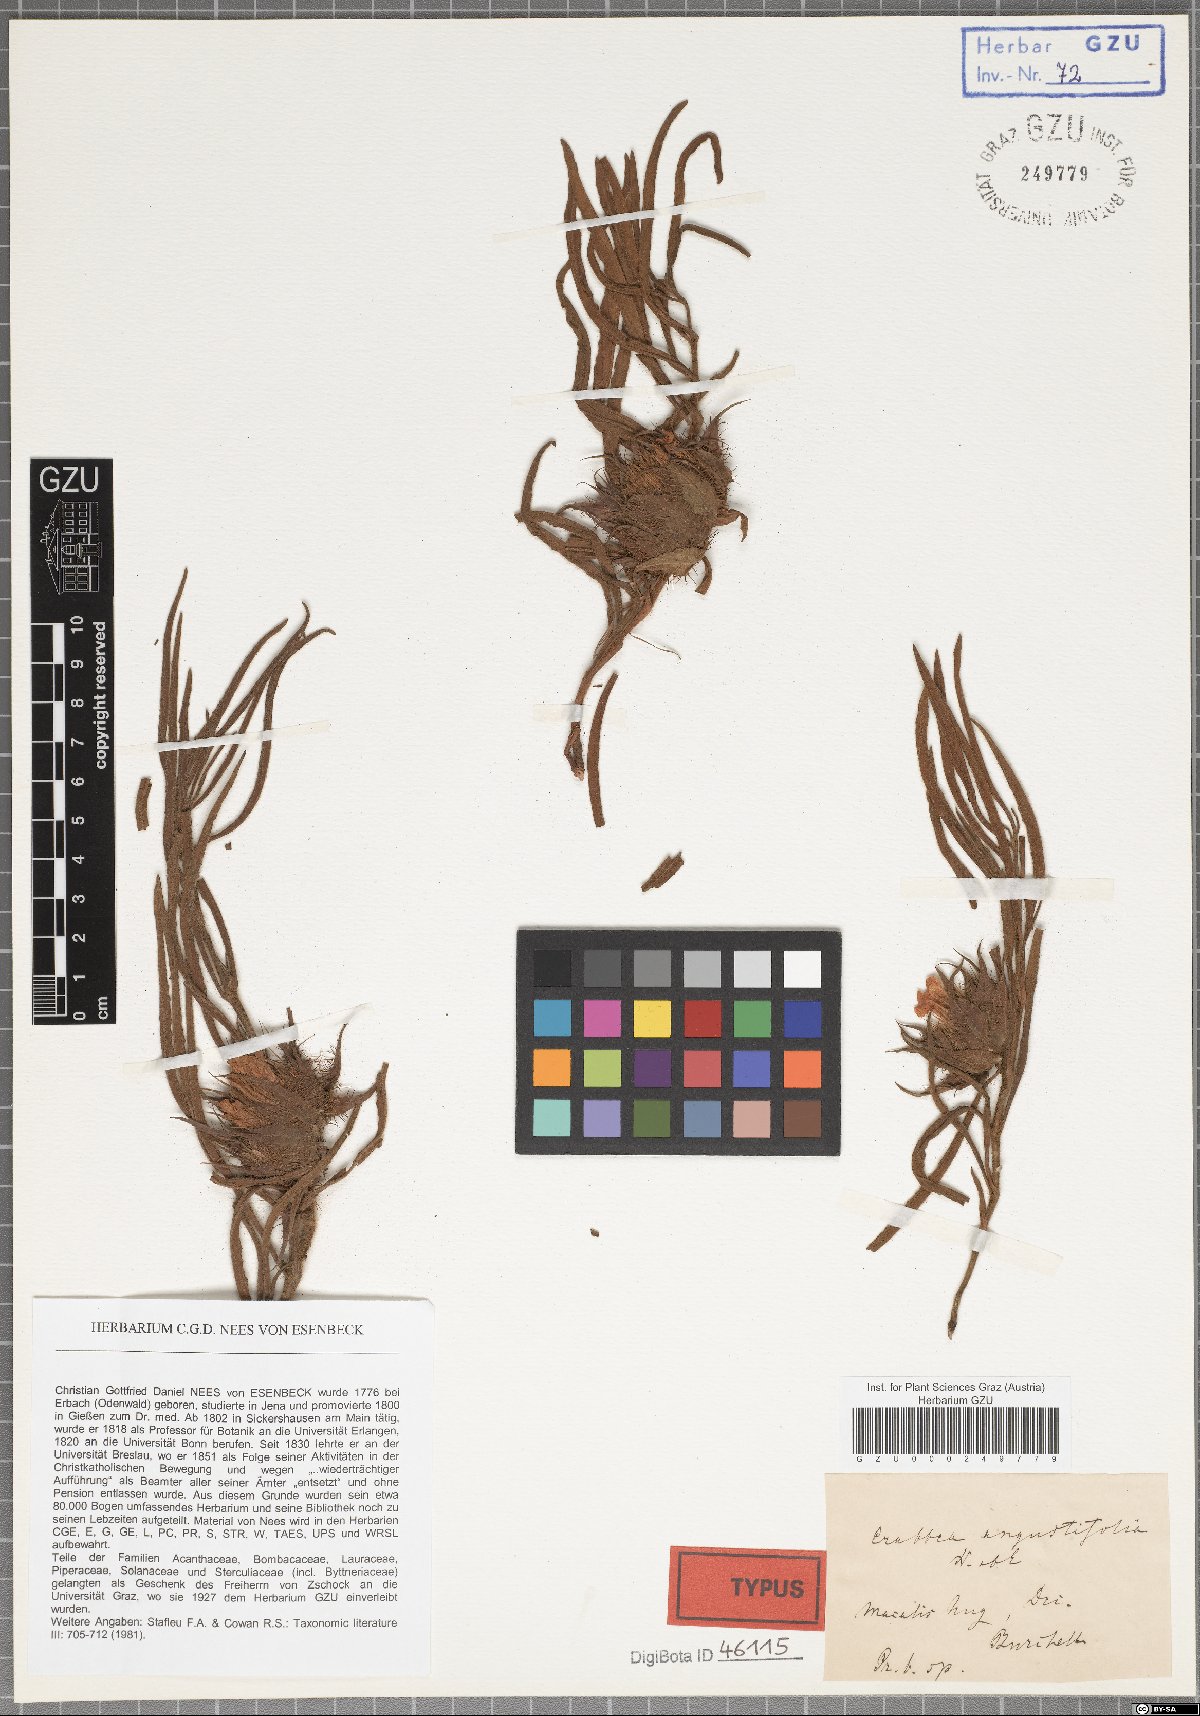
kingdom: Plantae
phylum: Tracheophyta
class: Magnoliopsida
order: Lamiales
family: Acanthaceae
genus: Crabbea
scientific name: Crabbea cirsioides
